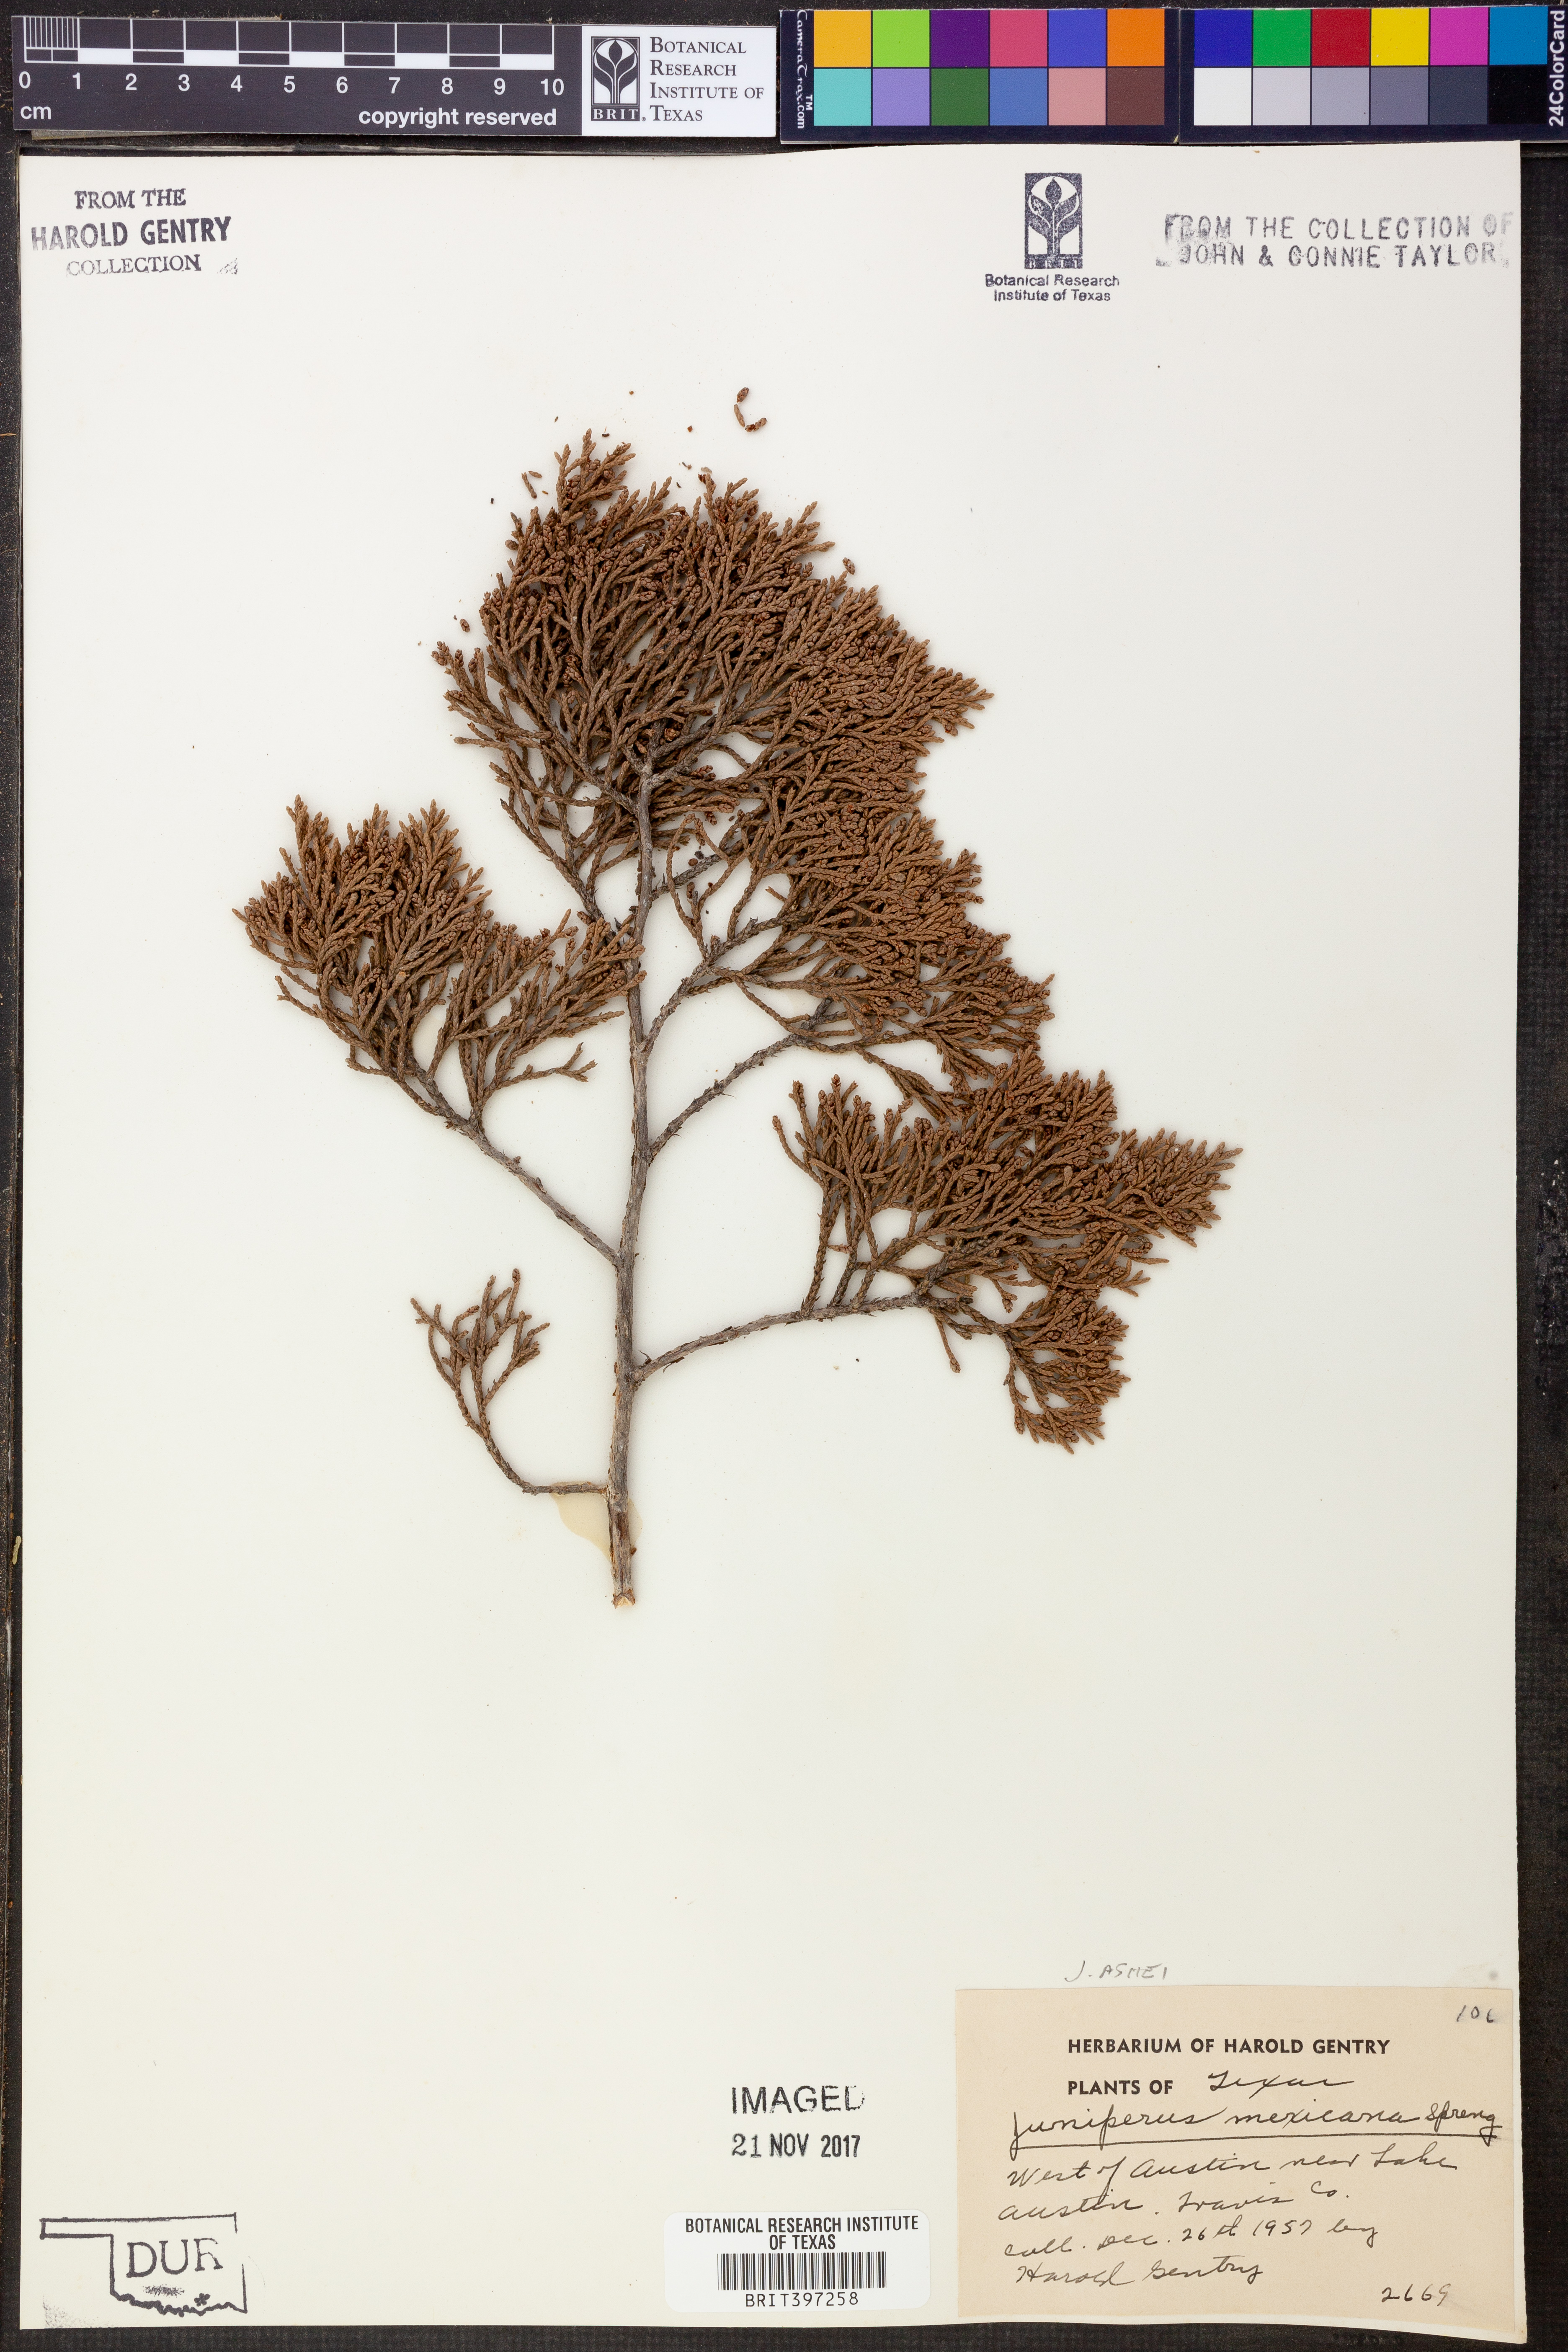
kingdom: Plantae
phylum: Tracheophyta
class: Pinopsida
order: Pinales
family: Cupressaceae
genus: Juniperus
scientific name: Juniperus ashei
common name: Mexican juniper
